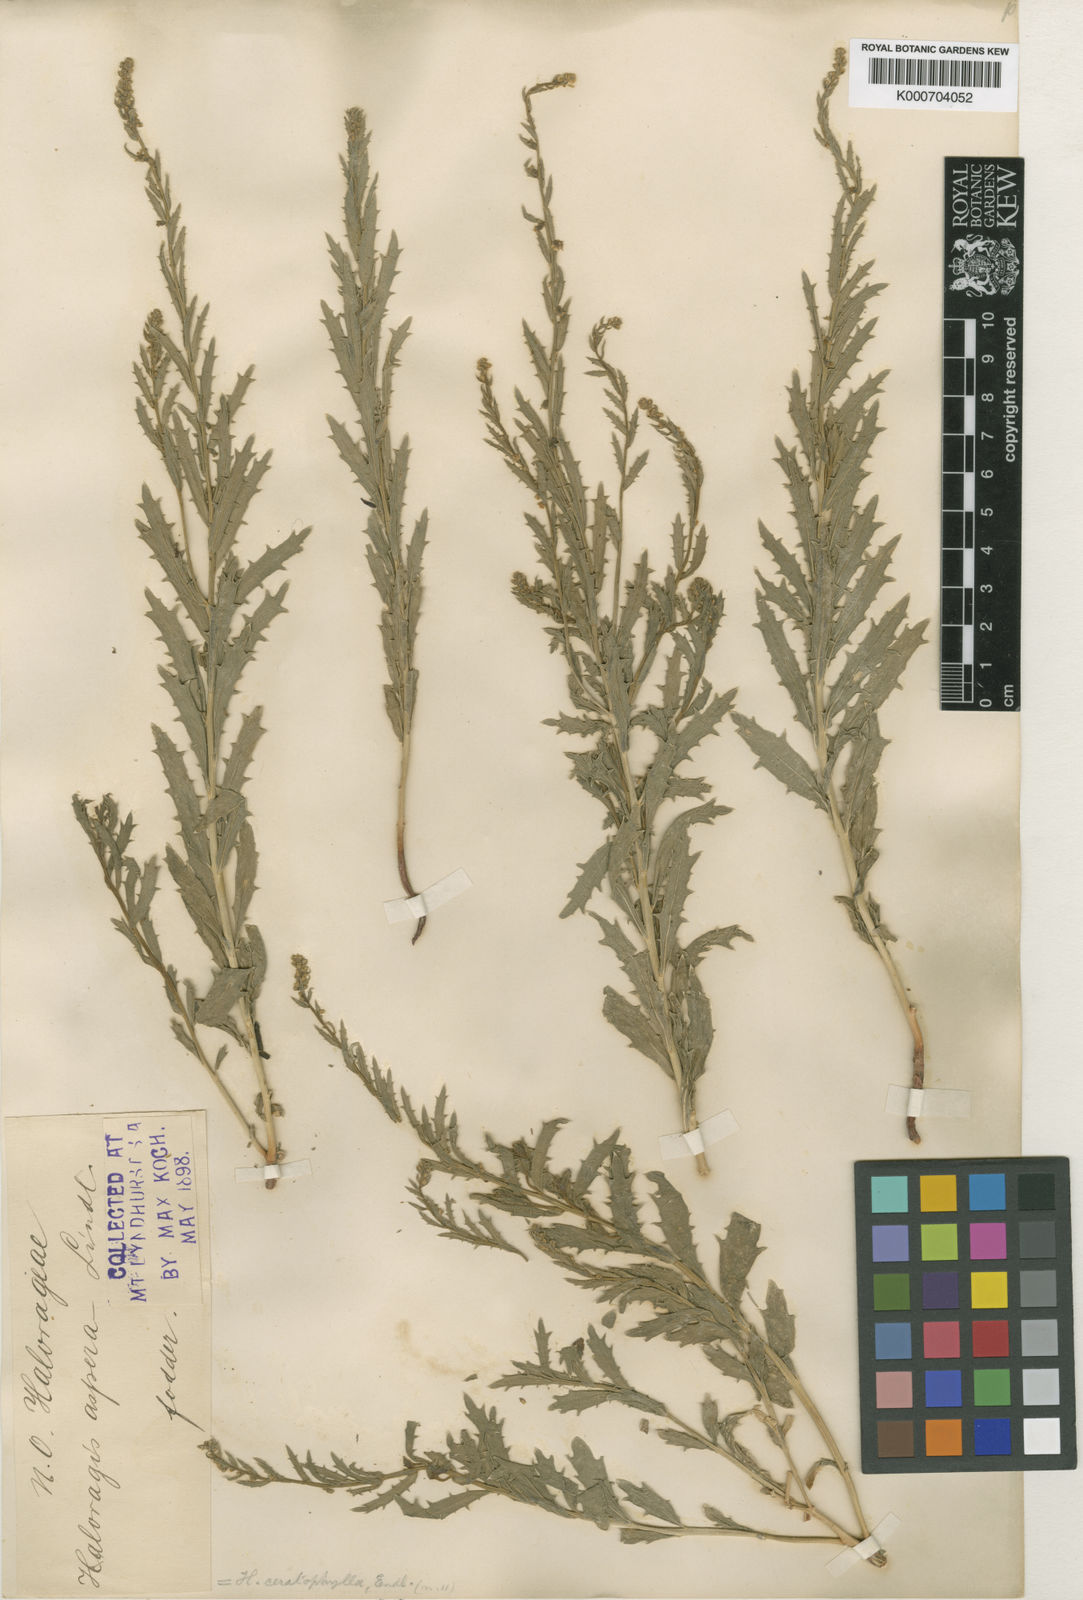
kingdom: Plantae
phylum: Tracheophyta
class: Magnoliopsida
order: Saxifragales
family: Haloragaceae
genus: Haloragis
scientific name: Haloragis aspera
